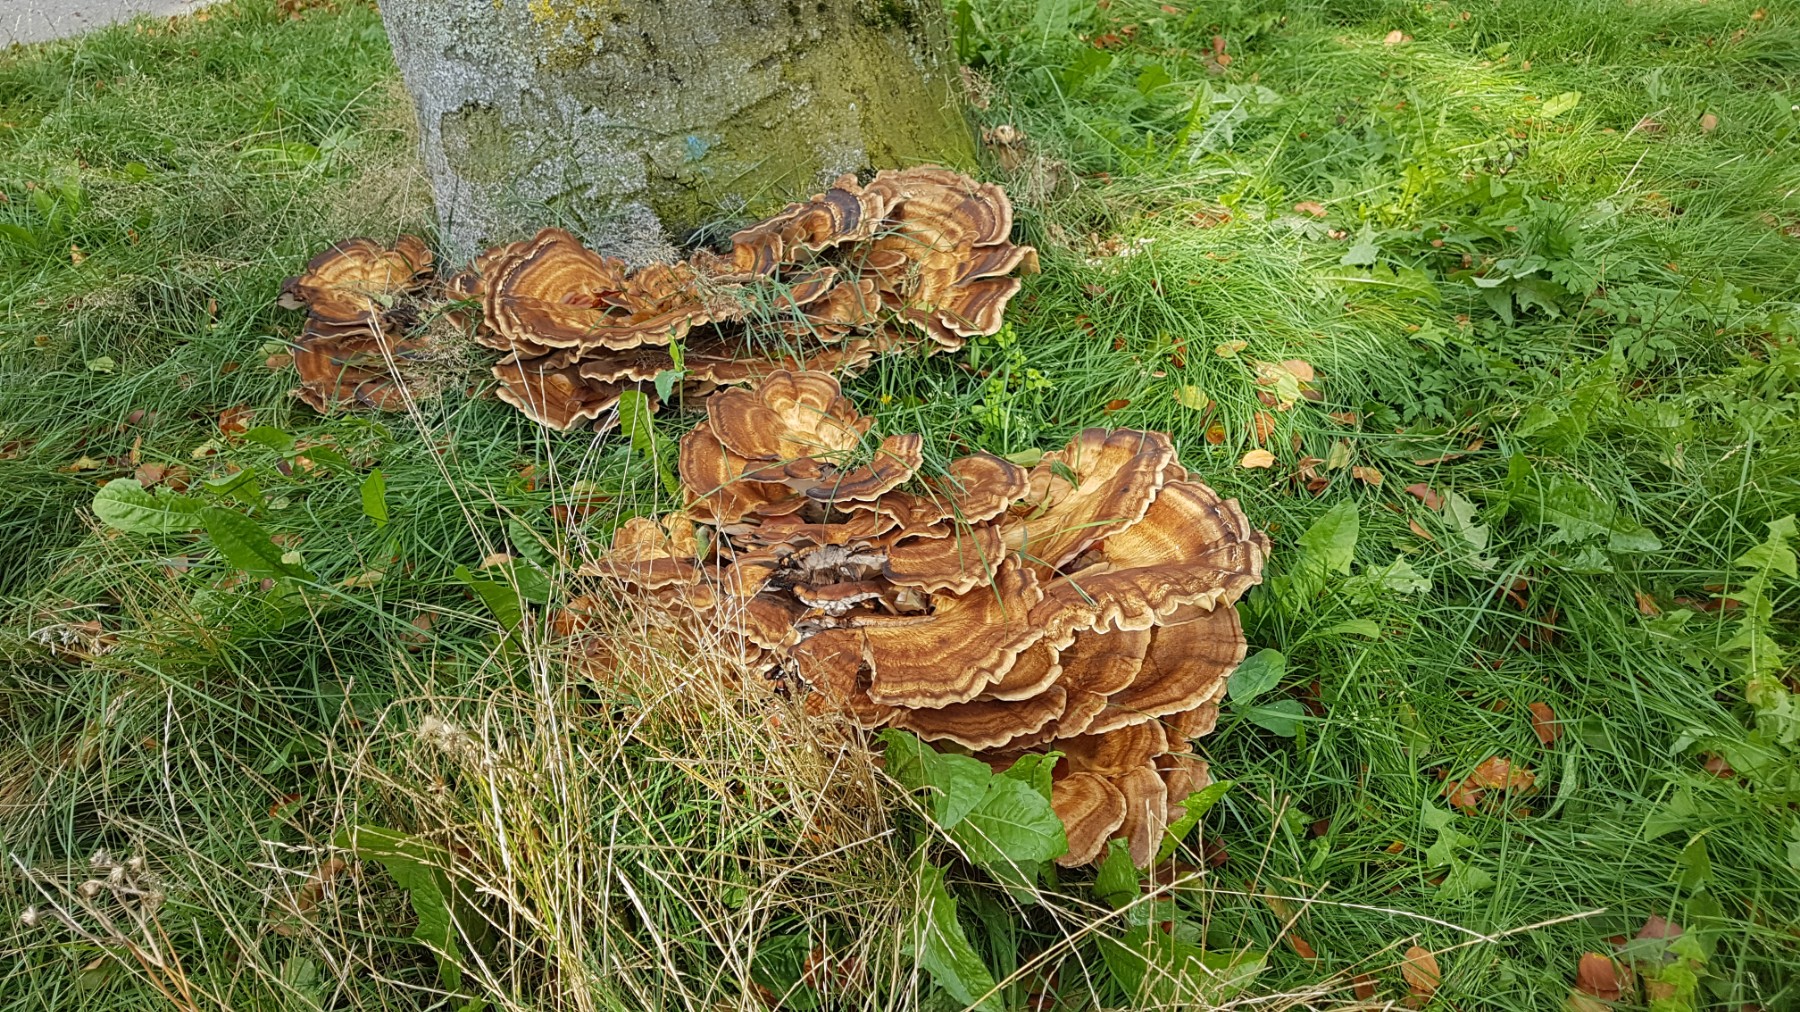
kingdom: Fungi
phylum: Basidiomycota
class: Agaricomycetes
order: Polyporales
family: Meripilaceae
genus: Meripilus
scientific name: Meripilus giganteus
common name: kæmpeporesvamp
